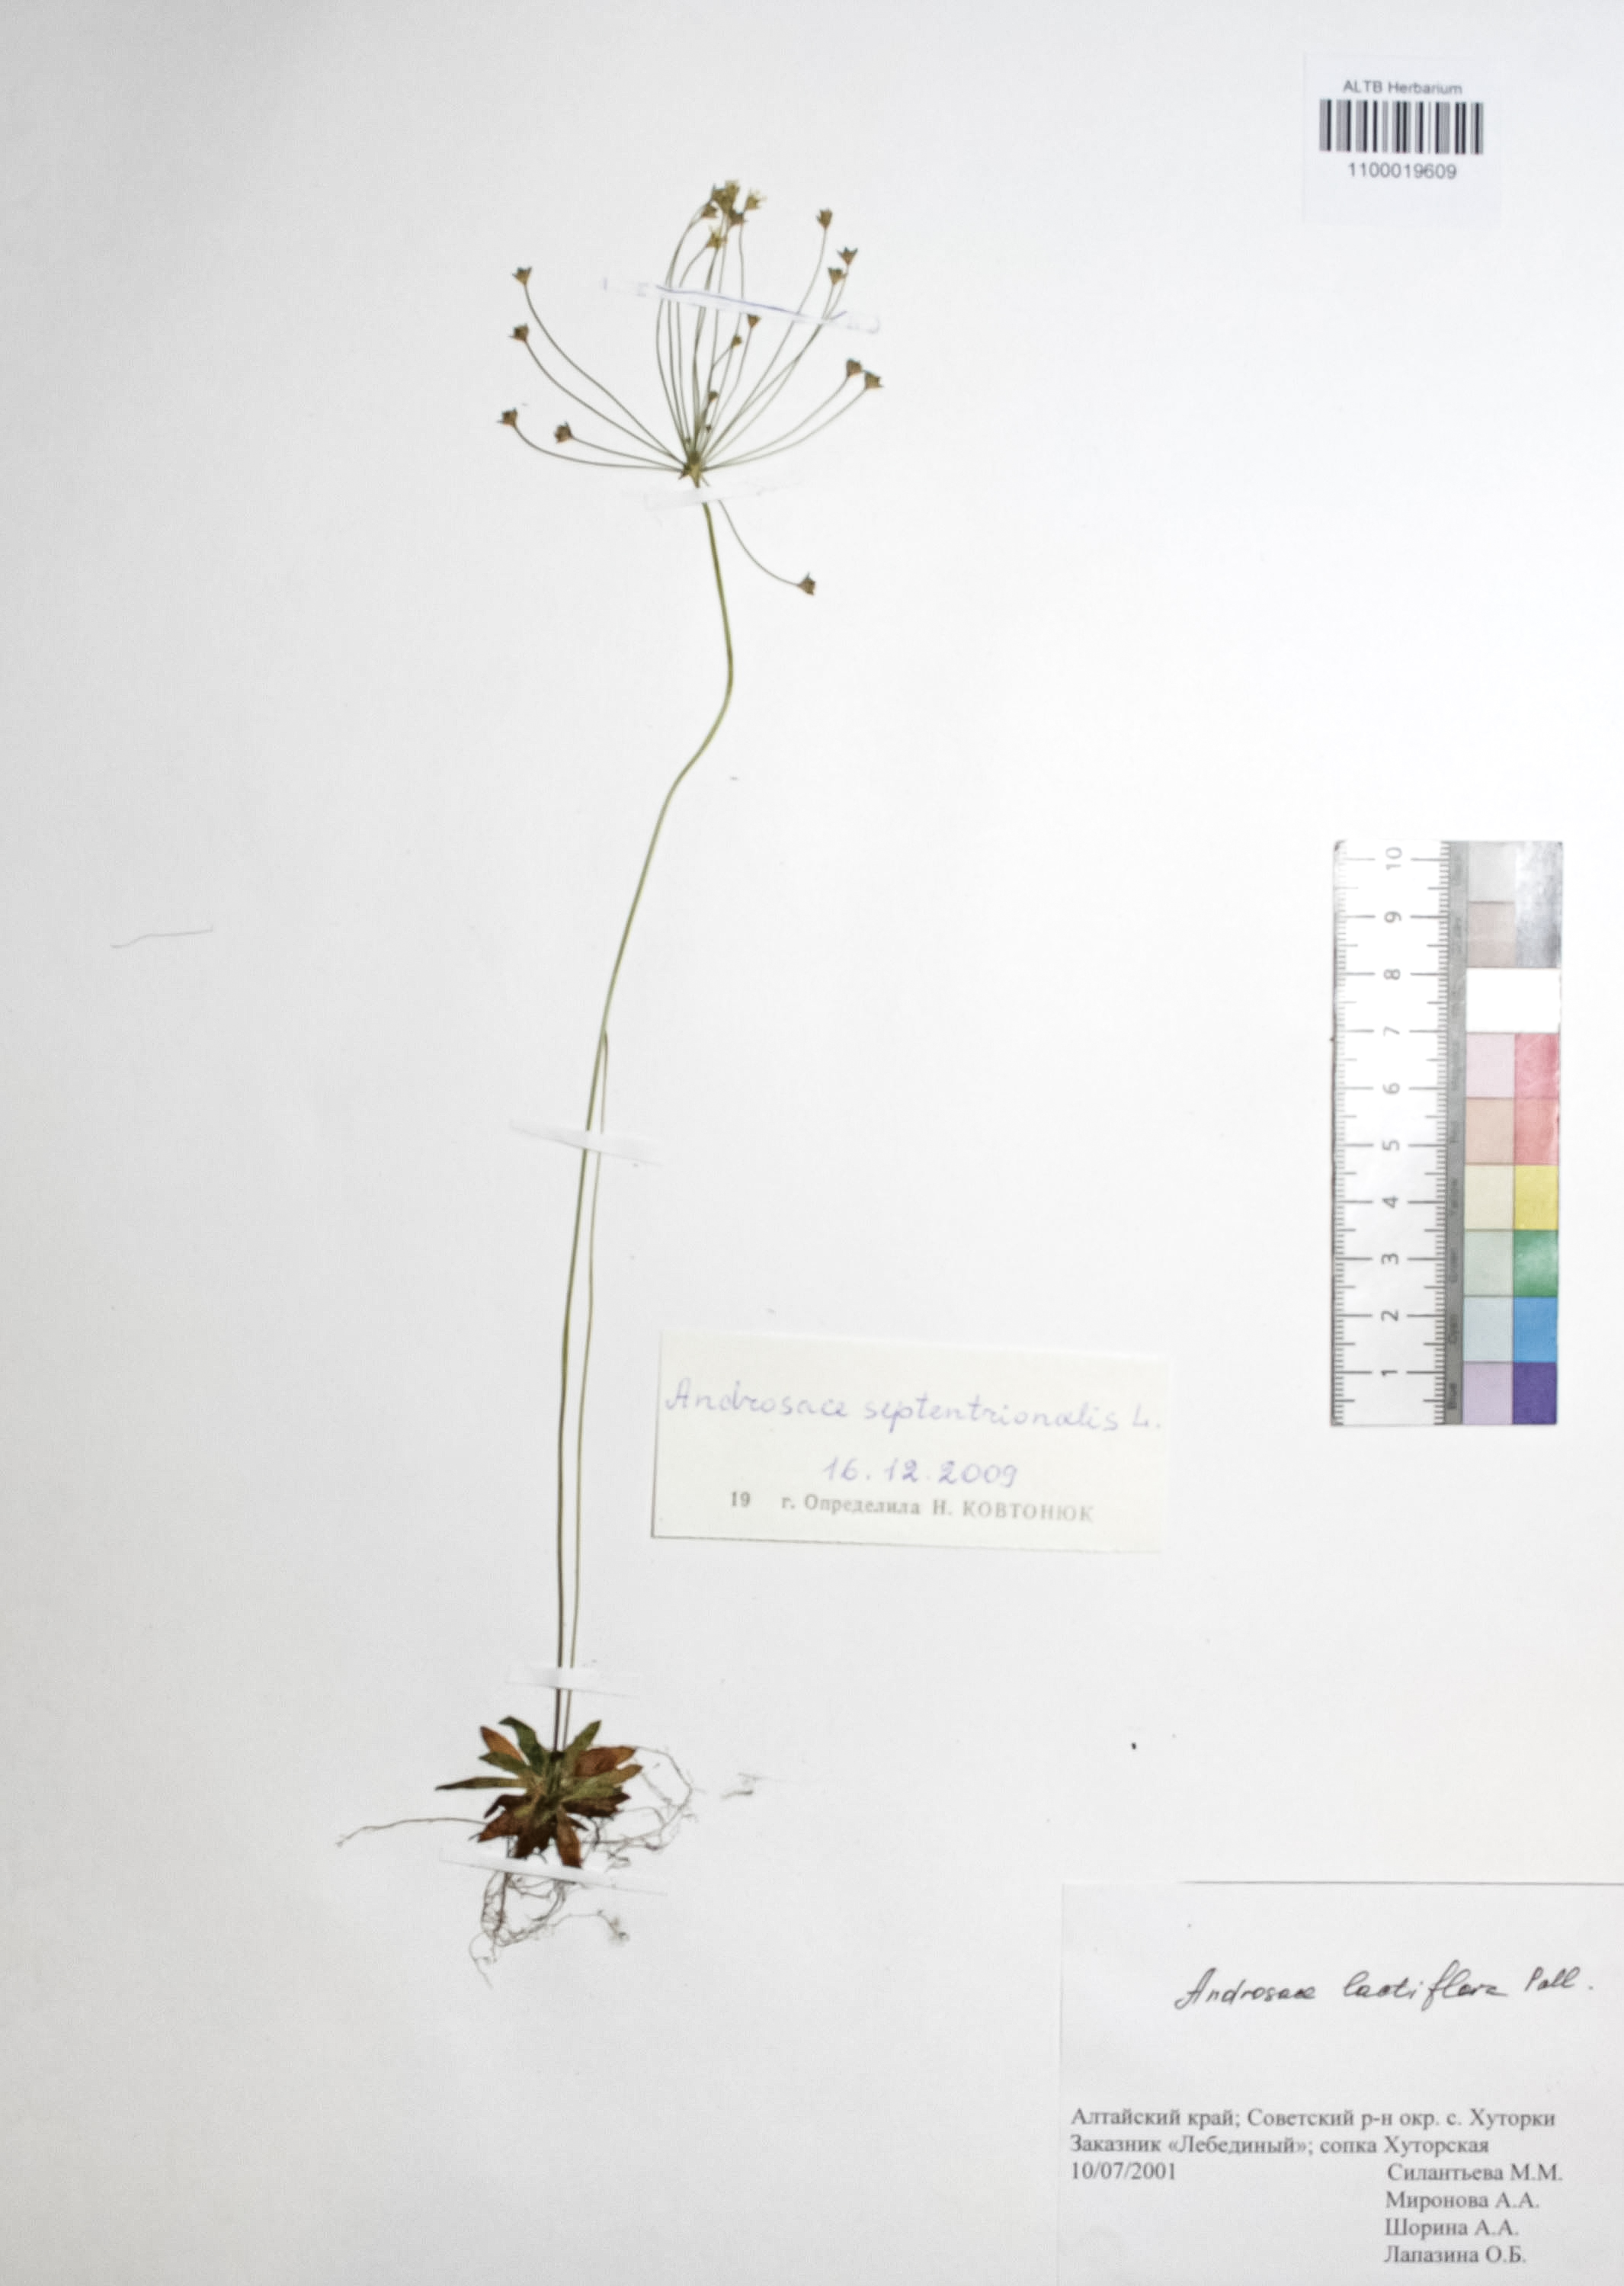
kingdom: Plantae
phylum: Tracheophyta
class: Magnoliopsida
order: Ericales
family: Primulaceae
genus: Androsace
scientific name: Androsace septentrionalis
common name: Hairy northern fairy-candelabra
